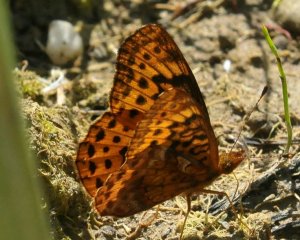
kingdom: Animalia
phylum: Arthropoda
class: Insecta
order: Lepidoptera
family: Nymphalidae
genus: Clossiana
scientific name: Clossiana toddi
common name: Meadow Fritillary
